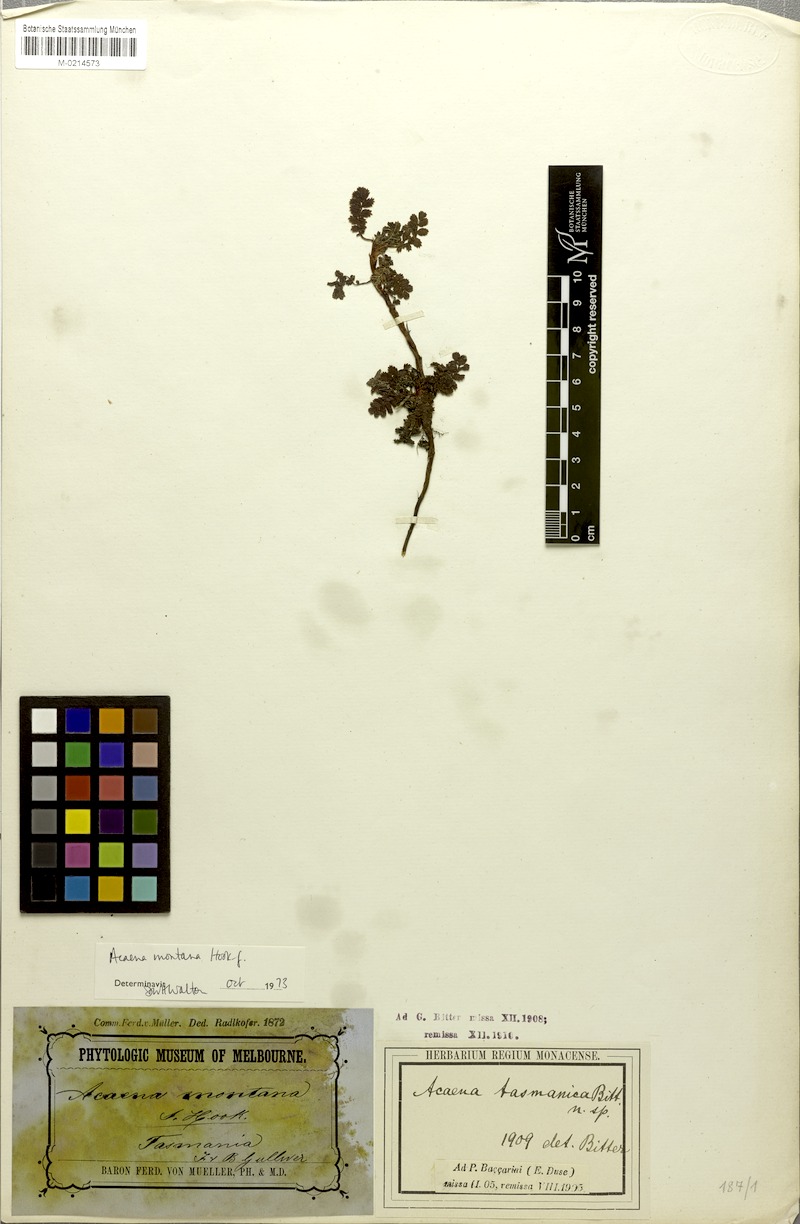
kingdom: Plantae
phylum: Tracheophyta
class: Magnoliopsida
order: Rosales
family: Rosaceae
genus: Acaena
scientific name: Acaena montana
